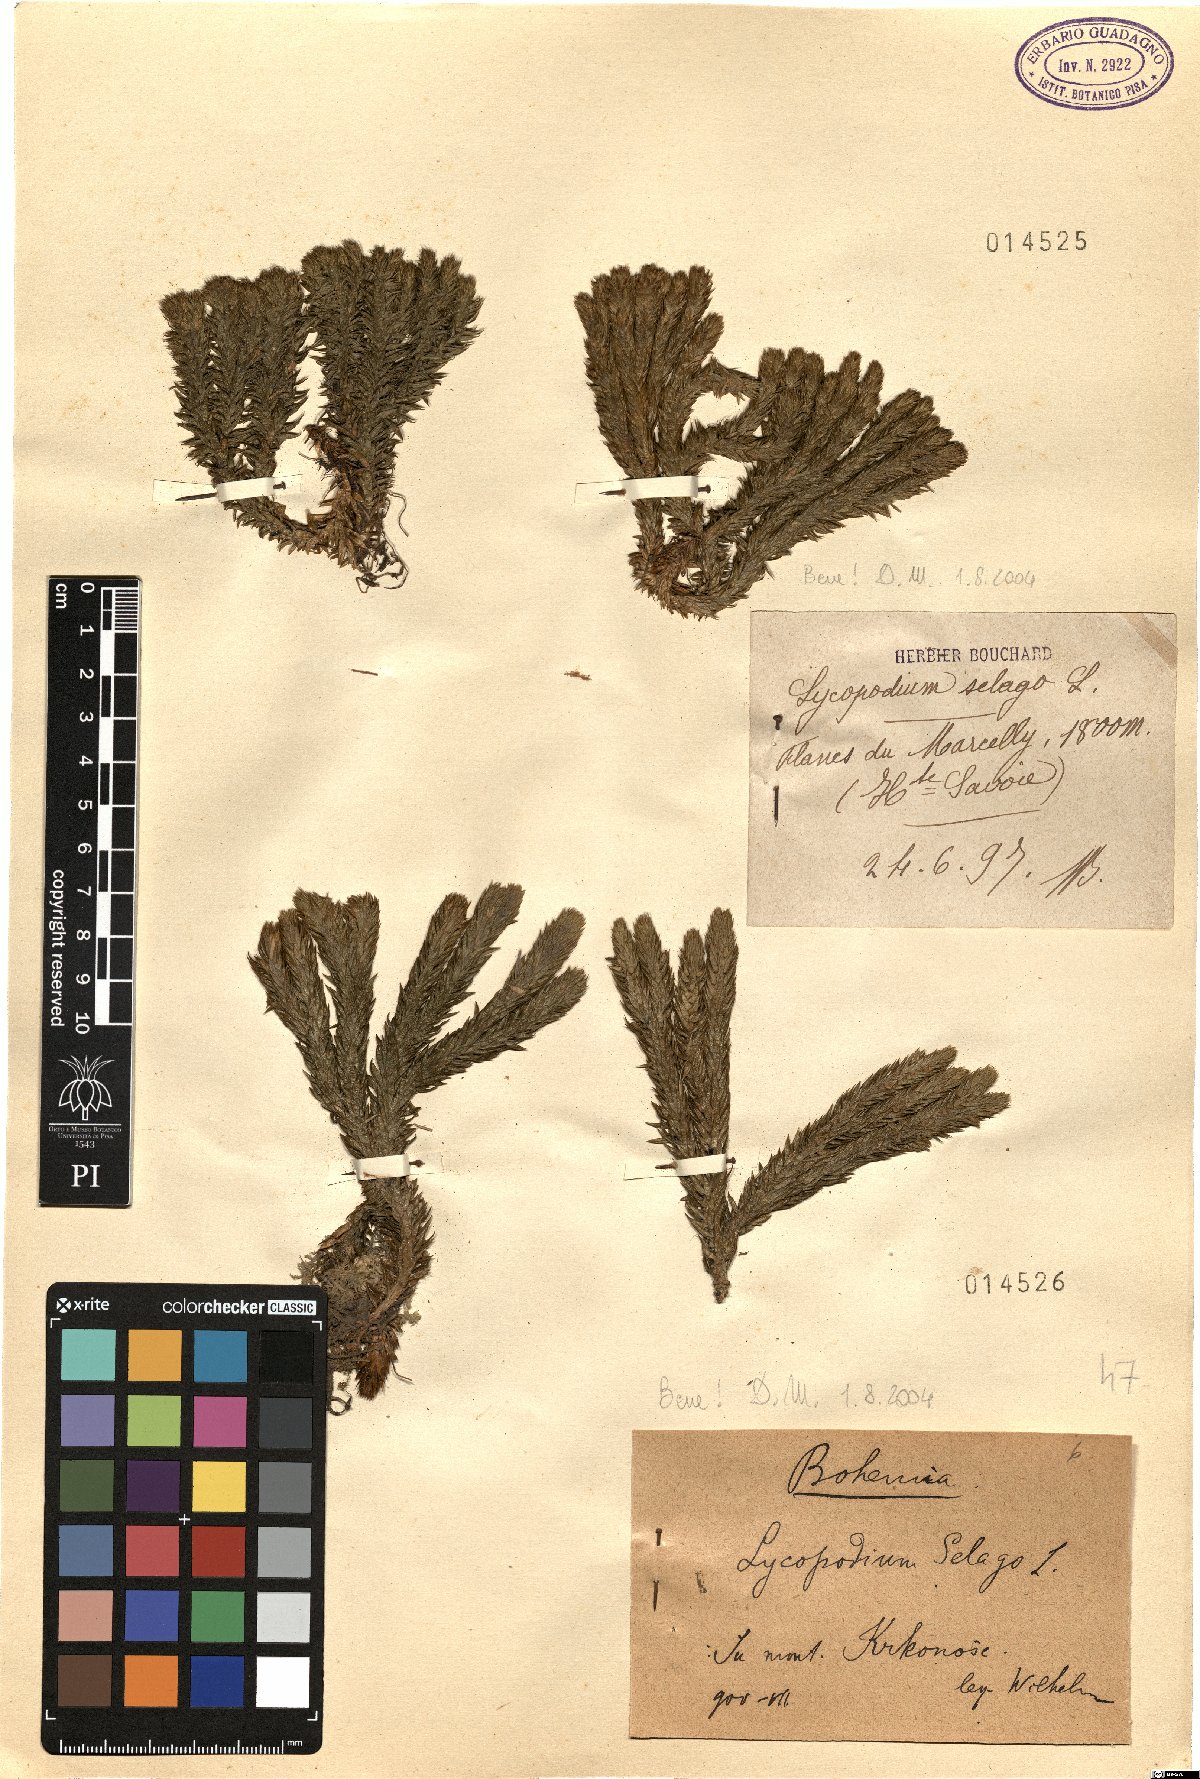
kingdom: Plantae
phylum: Tracheophyta
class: Lycopodiopsida
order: Lycopodiales
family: Lycopodiaceae
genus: Huperzia
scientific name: Huperzia selago
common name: Northern firmoss
